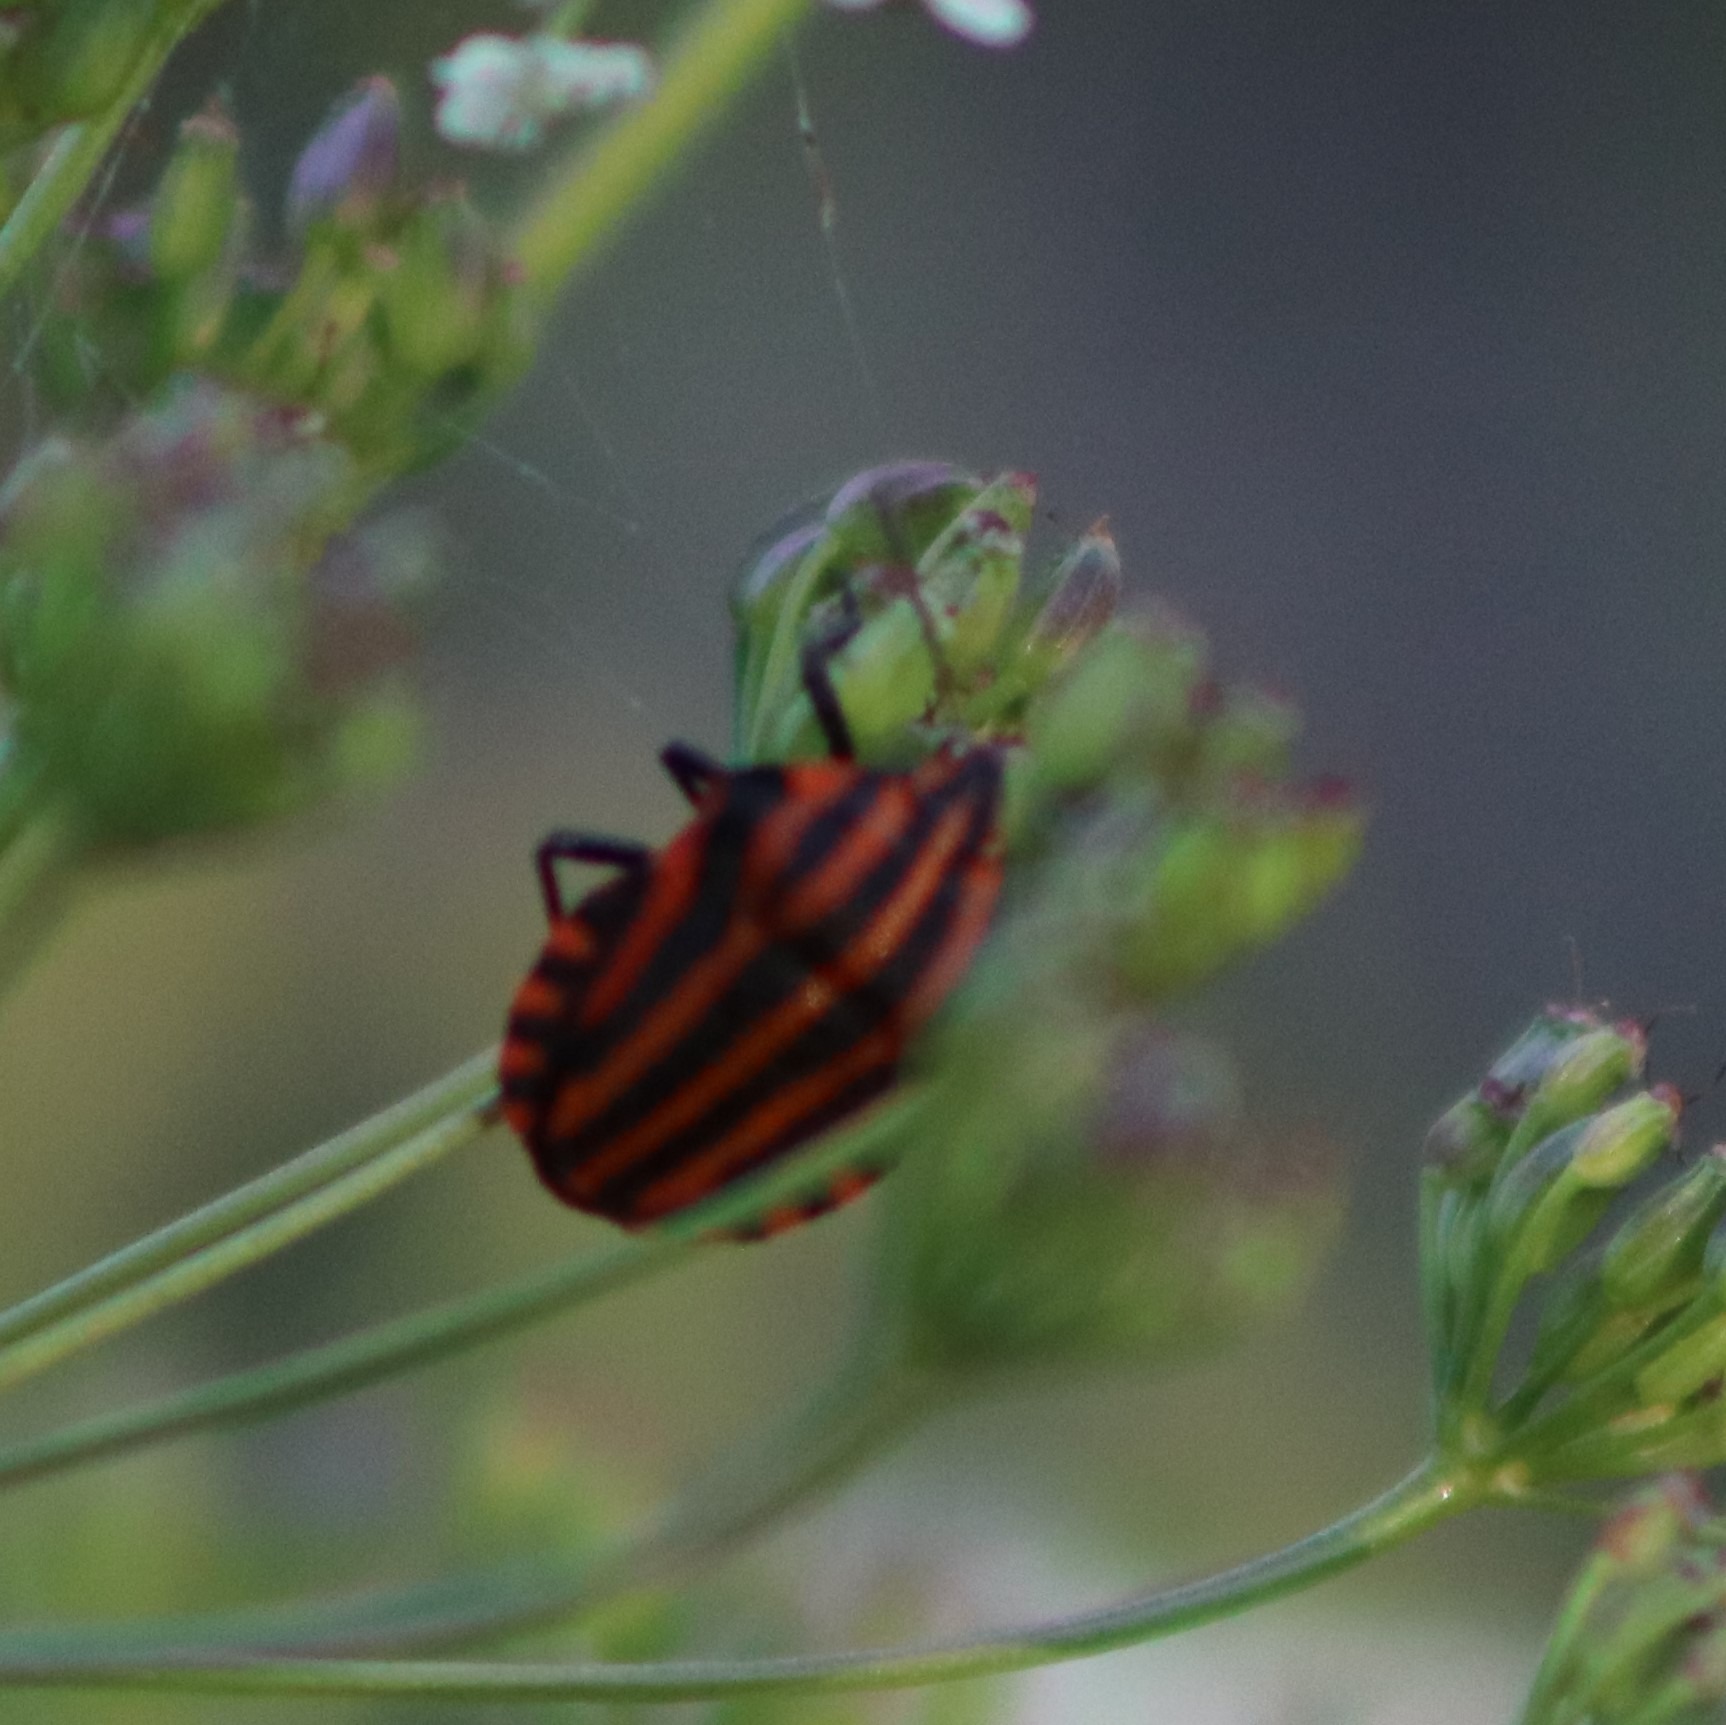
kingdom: Animalia
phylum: Arthropoda
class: Insecta
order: Hemiptera
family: Pentatomidae
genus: Graphosoma
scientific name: Graphosoma italicum
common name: Stribetæge
